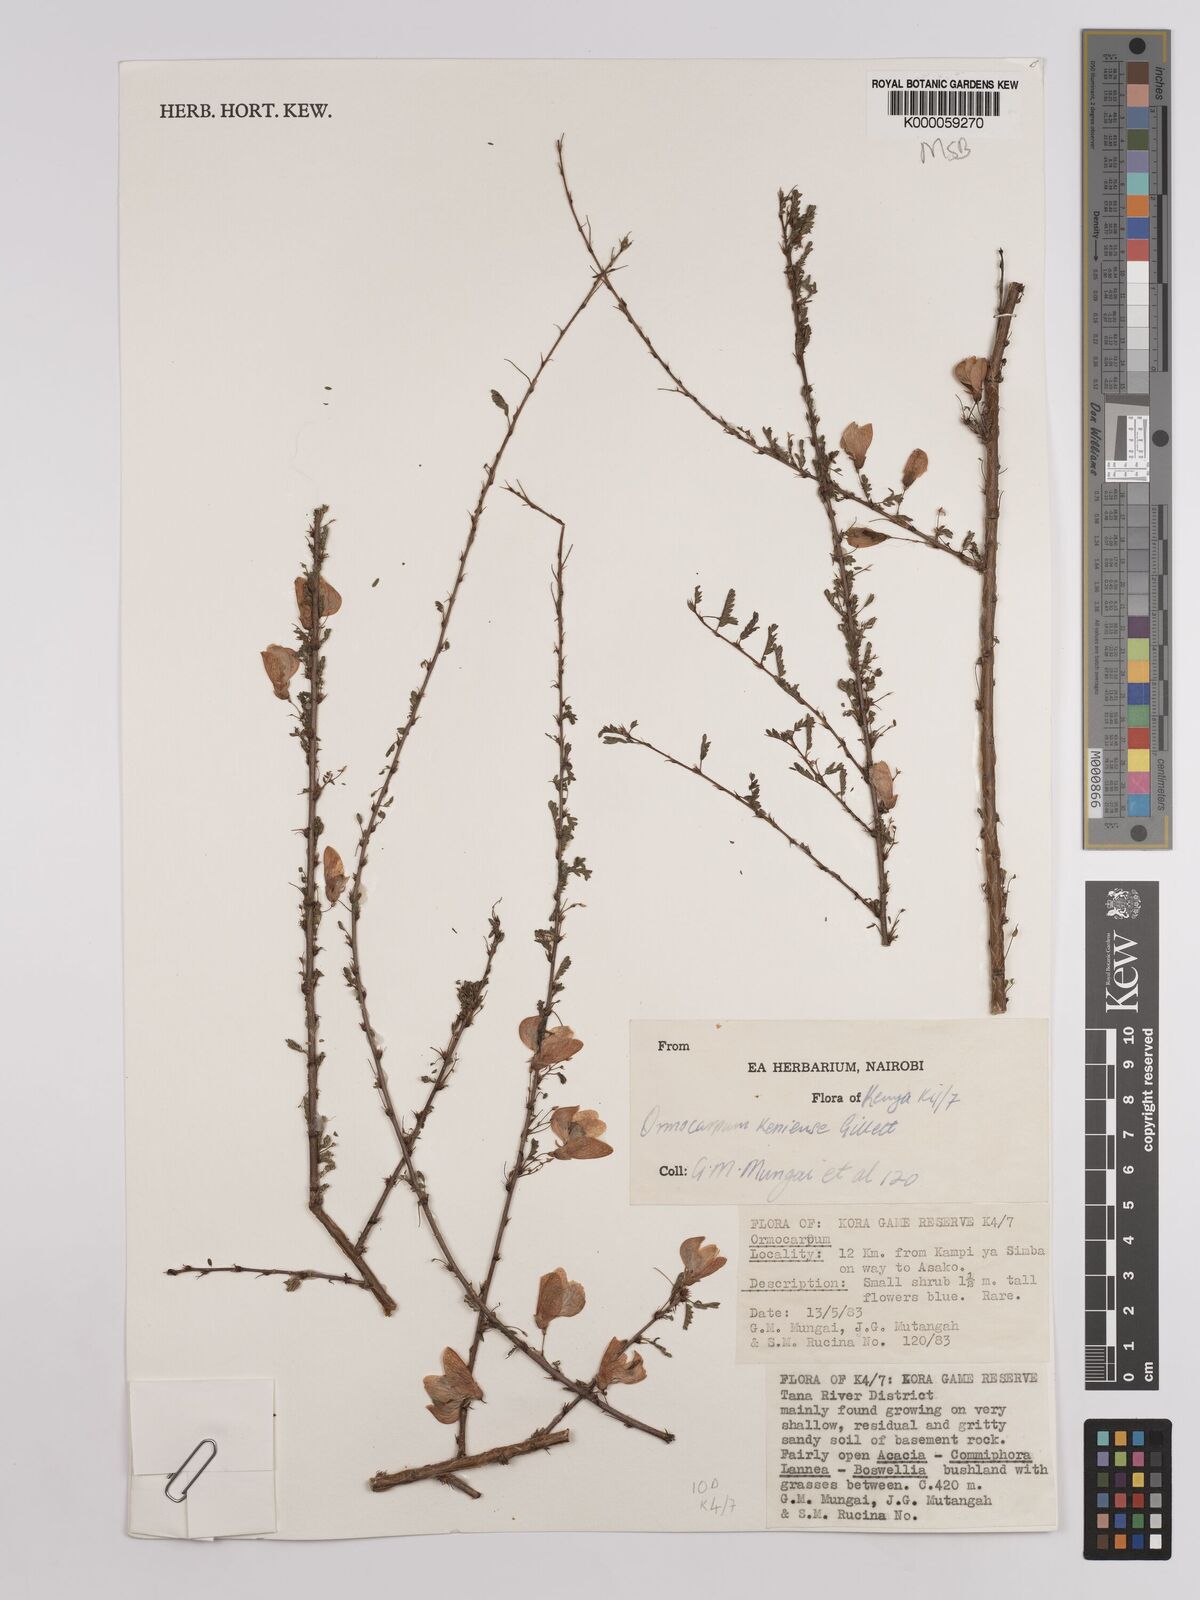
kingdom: Plantae
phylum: Tracheophyta
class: Magnoliopsida
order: Fabales
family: Fabaceae
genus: Ormocarpum
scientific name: Ormocarpum keniense
